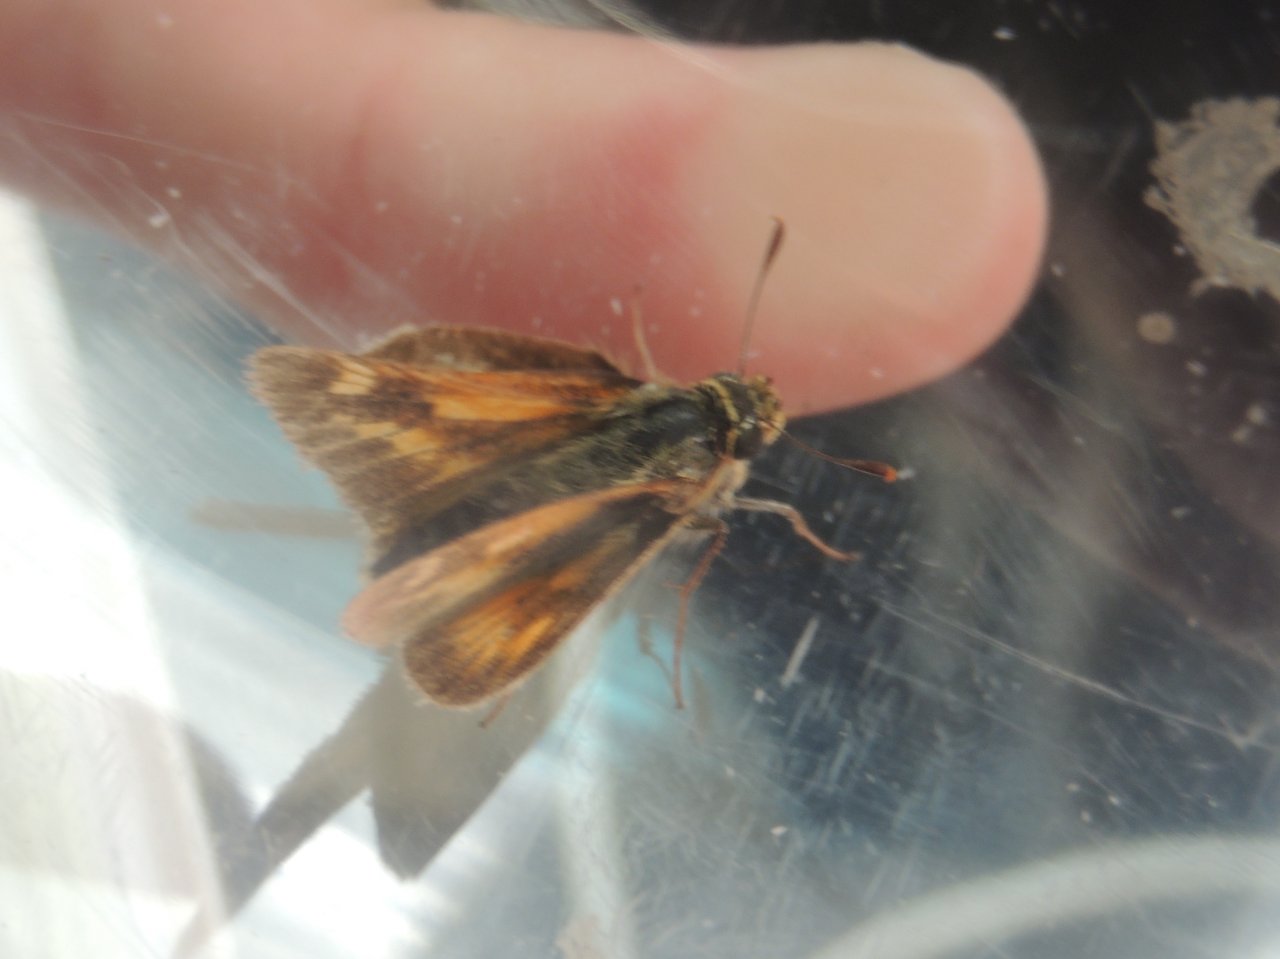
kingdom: Animalia
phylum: Arthropoda
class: Insecta
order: Lepidoptera
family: Hesperiidae
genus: Polites
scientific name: Polites
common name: Long Dash Skipper
